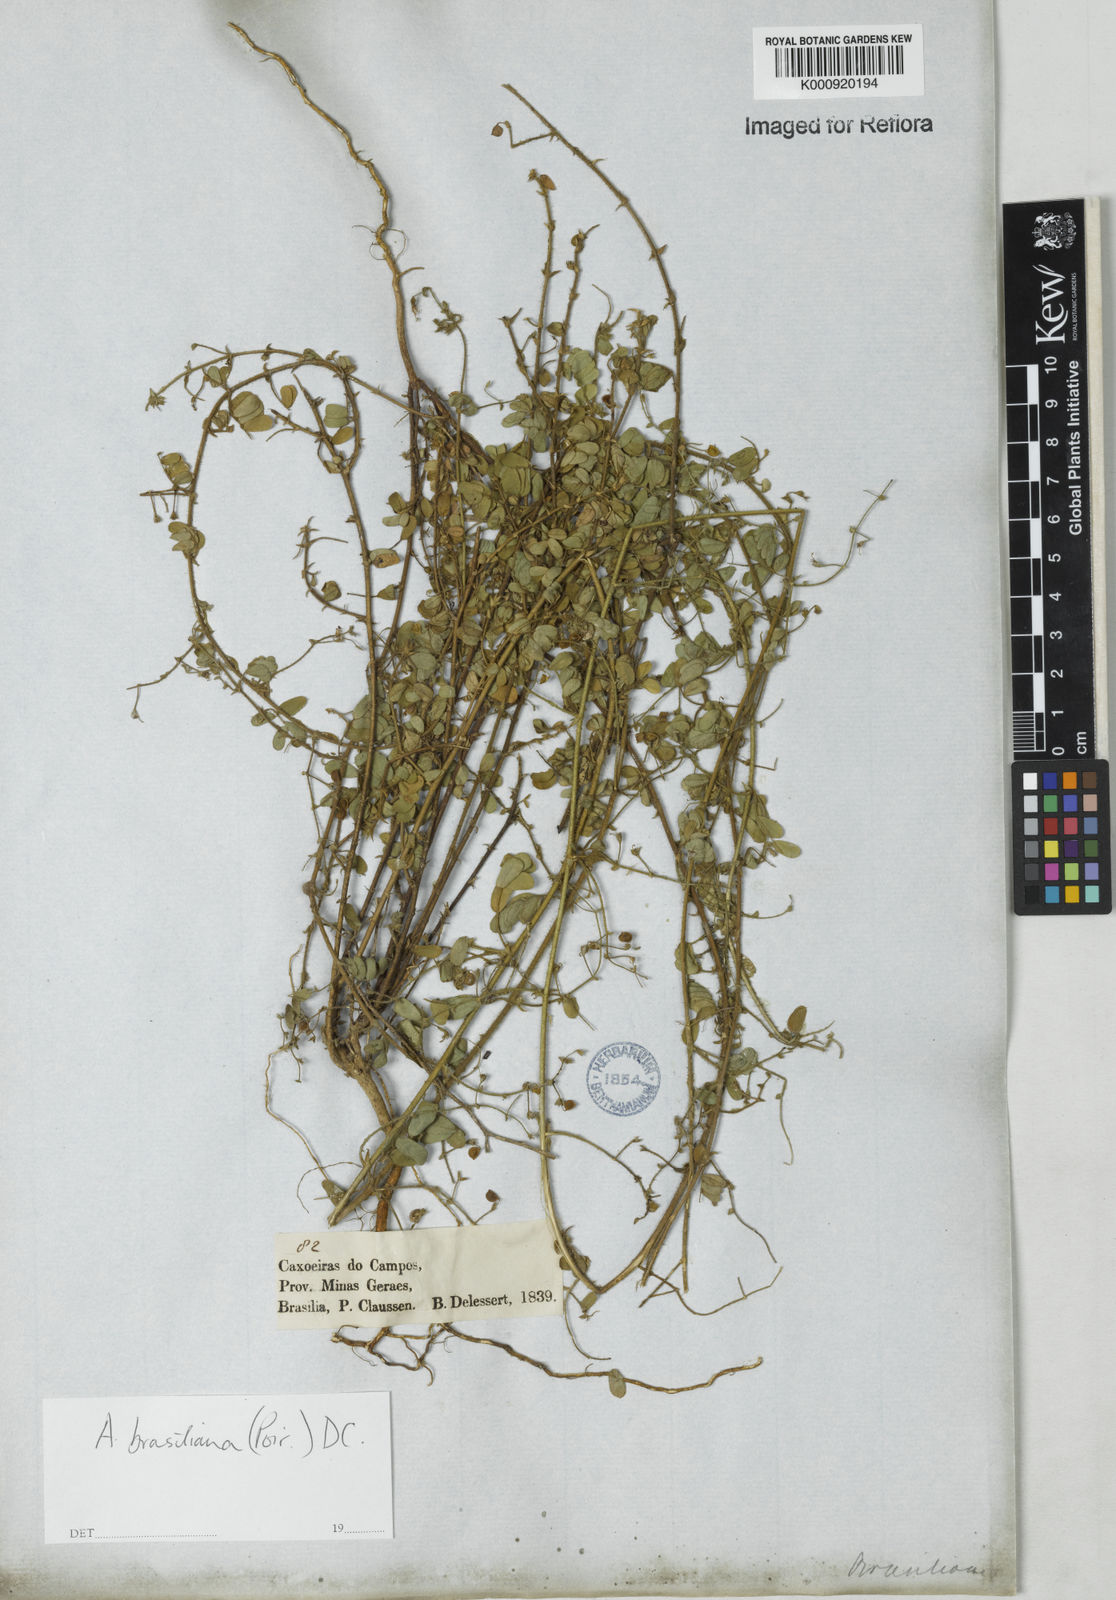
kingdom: Plantae
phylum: Tracheophyta
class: Magnoliopsida
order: Fabales
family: Fabaceae
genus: Ctenodon
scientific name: Ctenodon brasilianus
